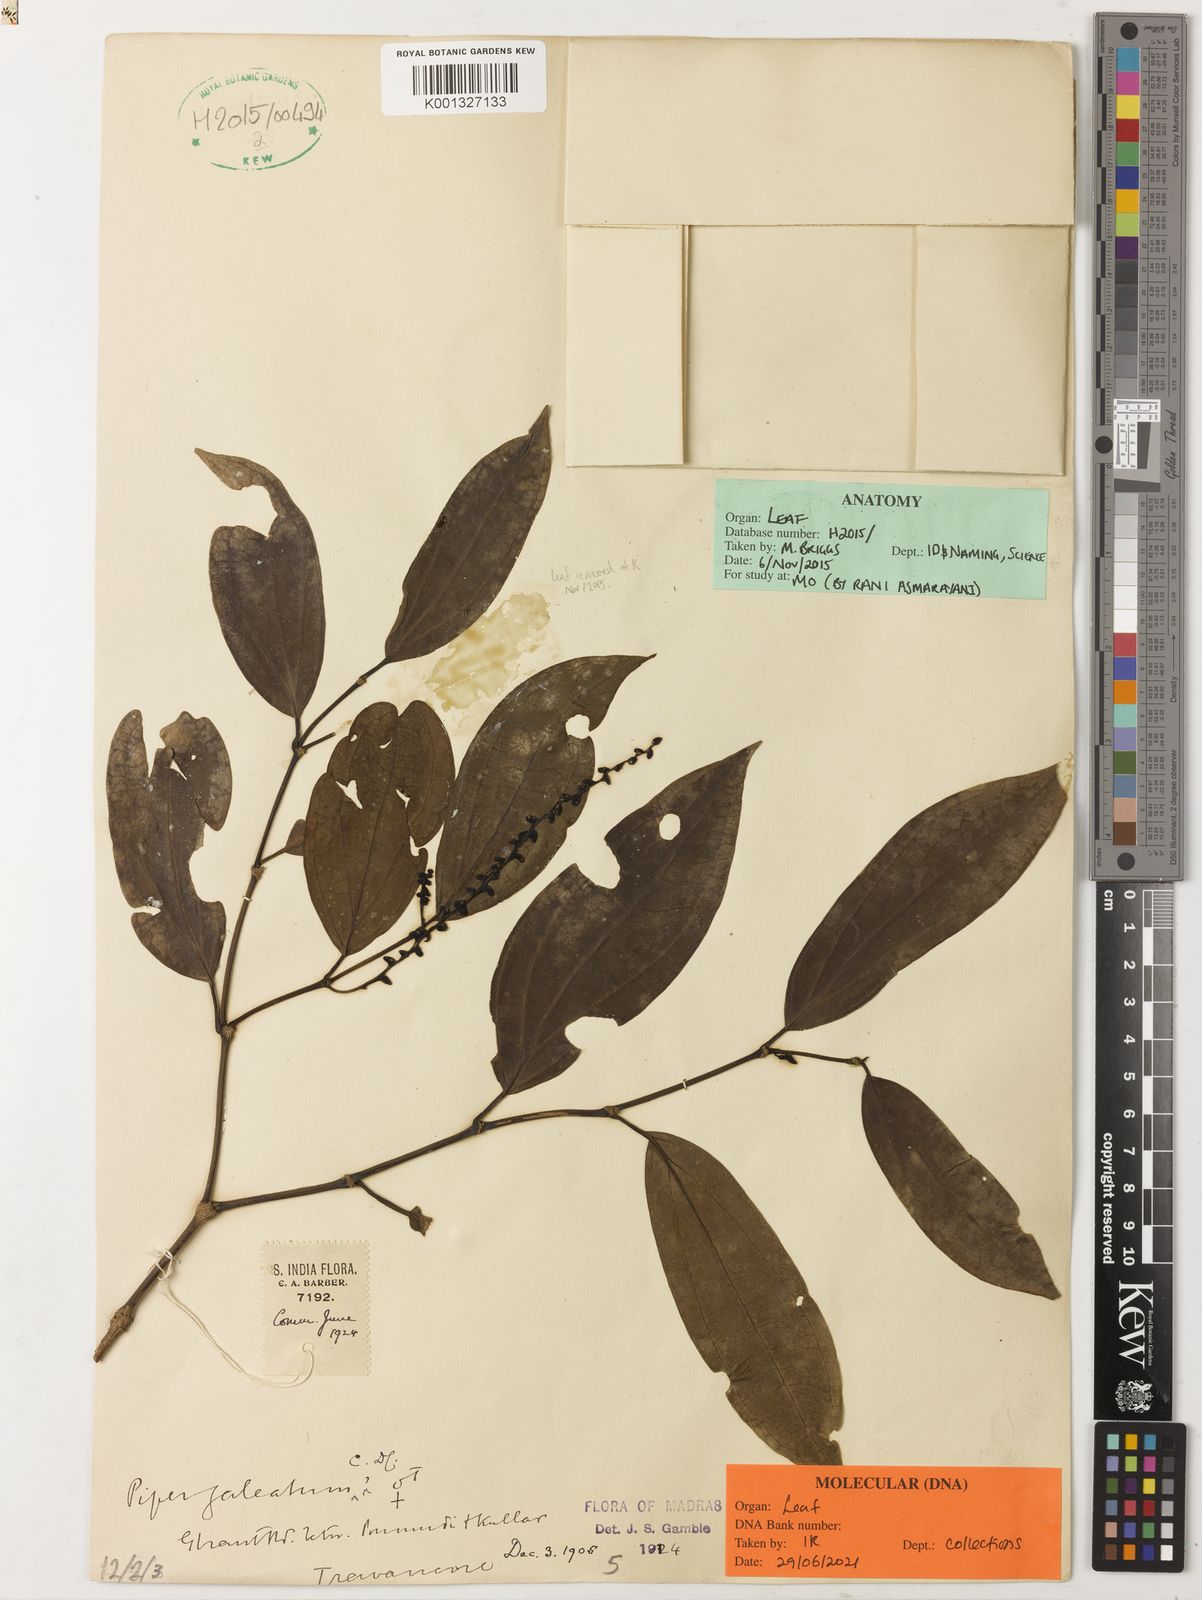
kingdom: Plantae
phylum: Tracheophyta
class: Magnoliopsida
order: Piperales
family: Piperaceae
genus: Piper
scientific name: Piper galeatum
